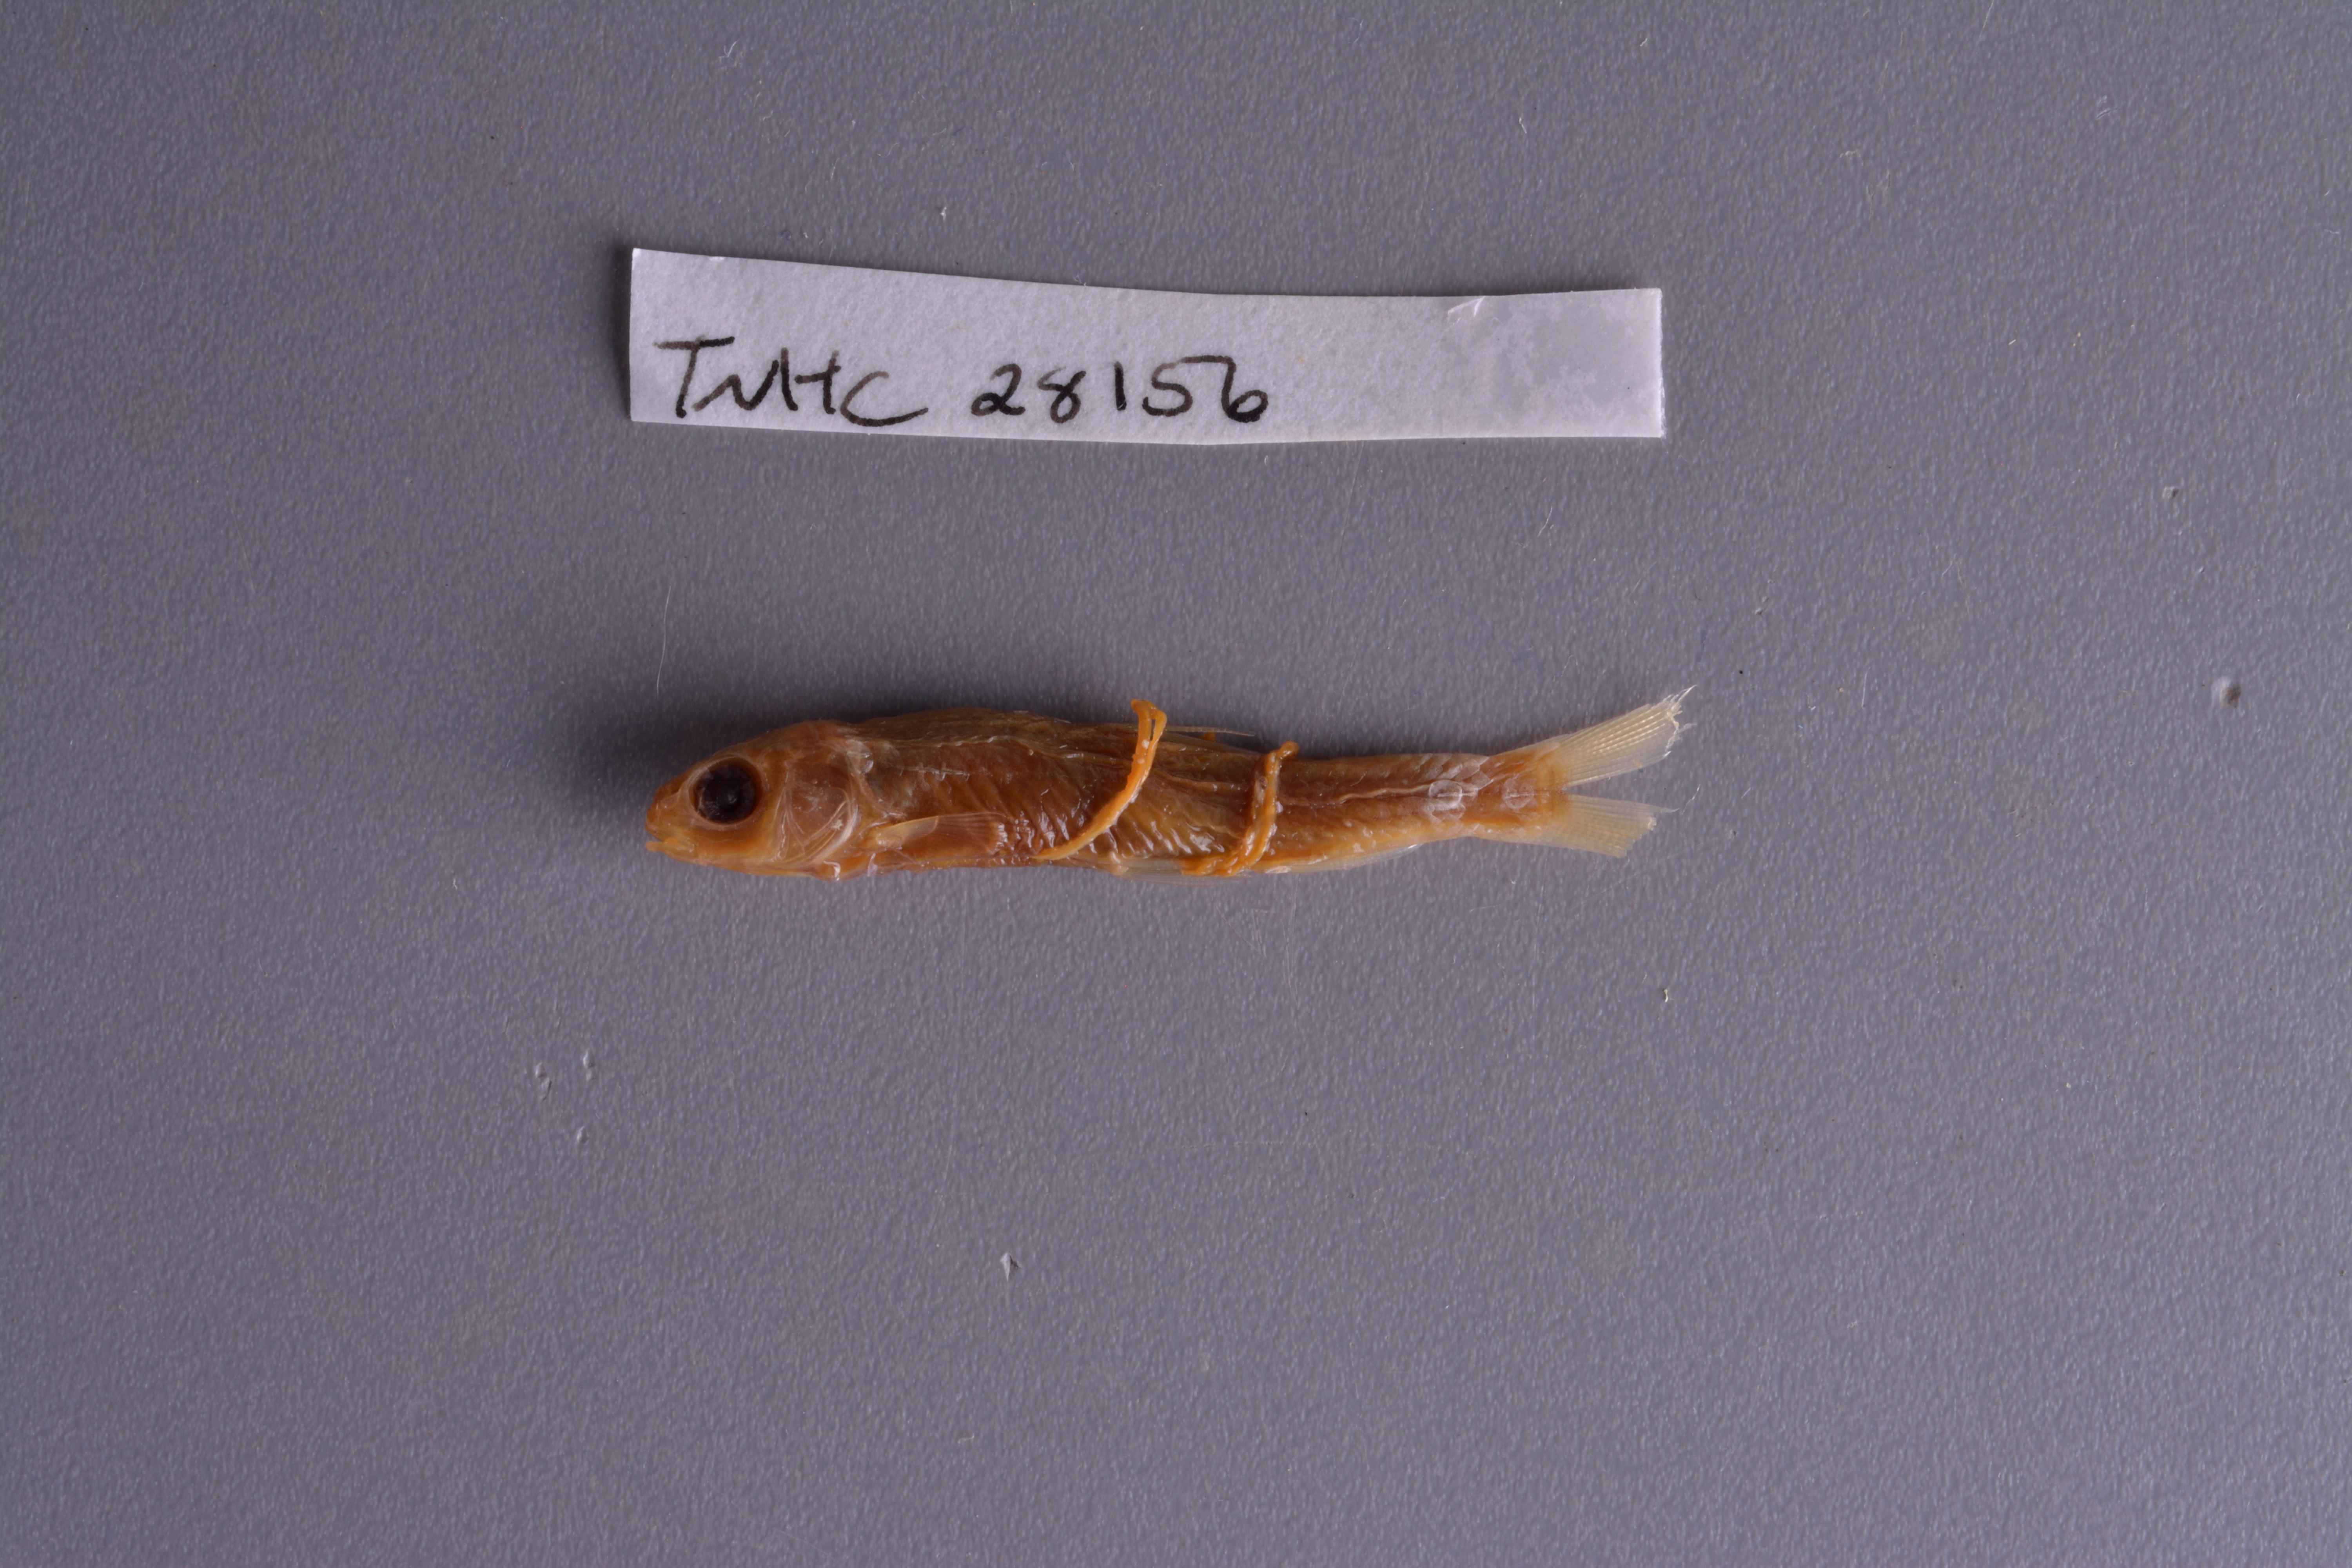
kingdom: Animalia
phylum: Chordata
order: Cypriniformes
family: Cyprinidae
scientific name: Cyprinidae
